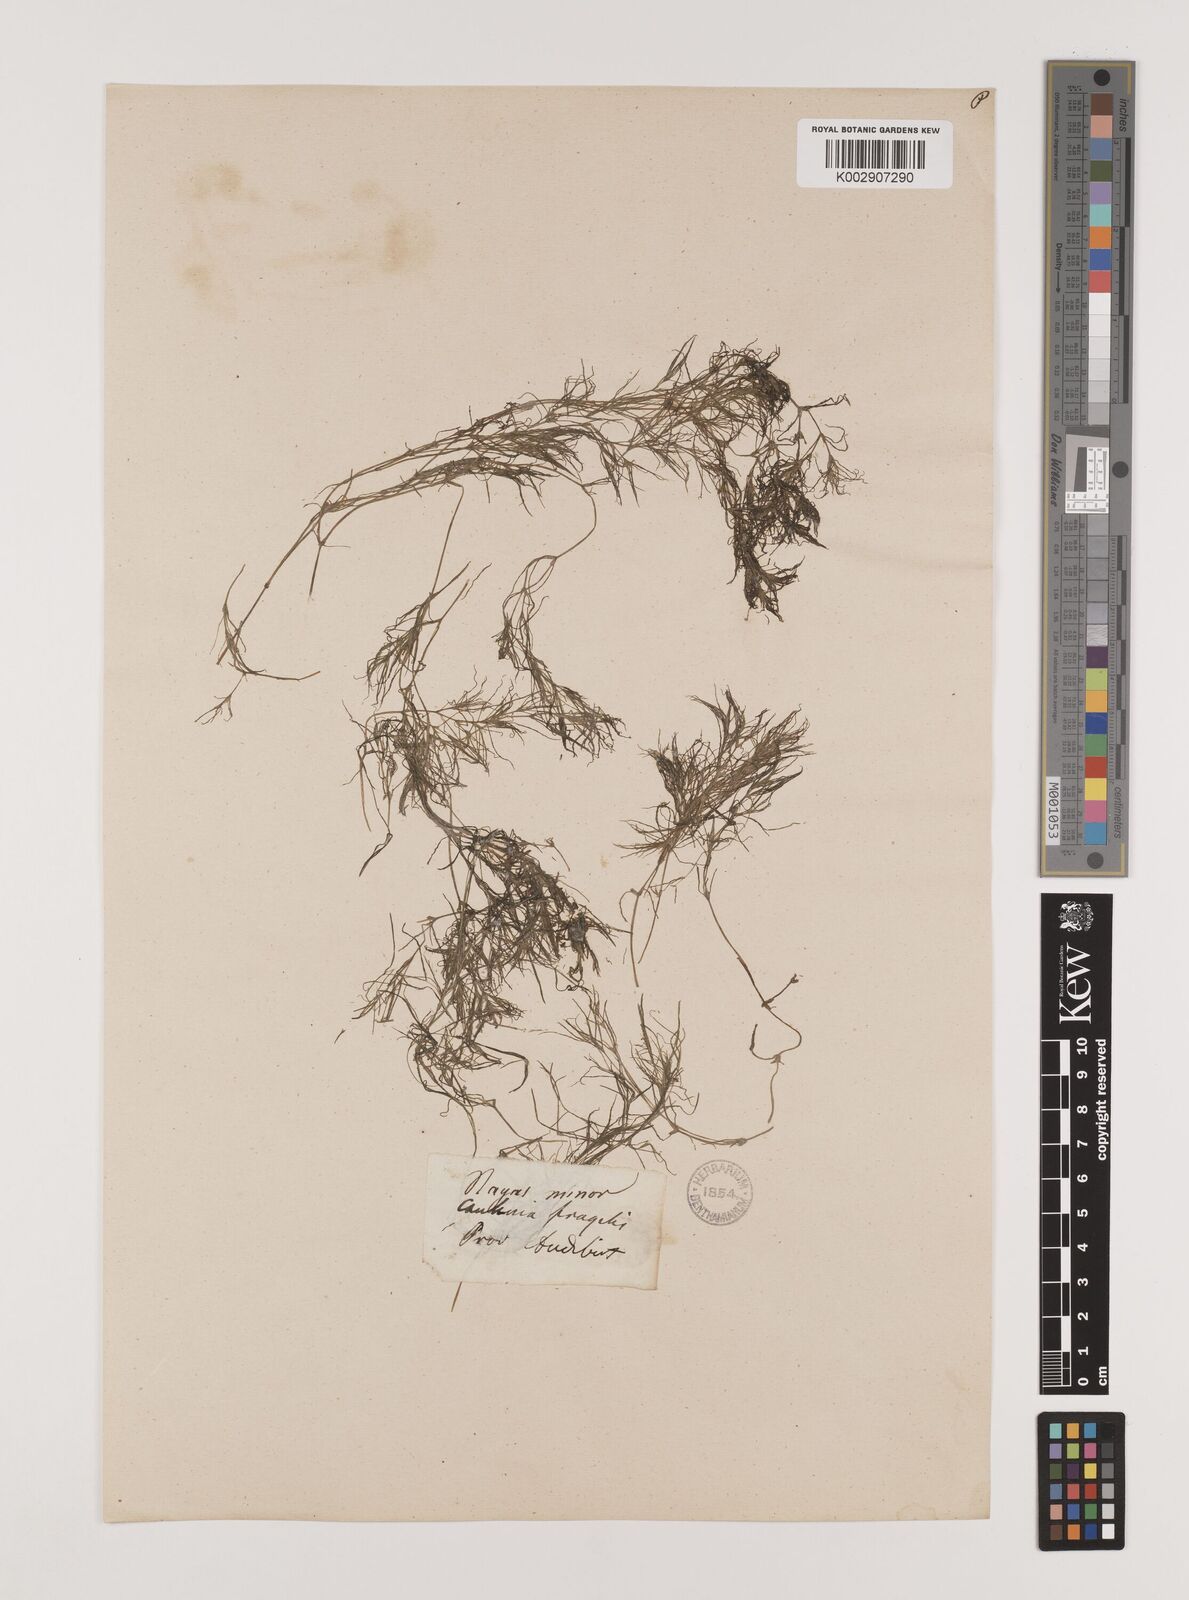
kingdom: Plantae
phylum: Tracheophyta
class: Liliopsida
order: Alismatales
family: Hydrocharitaceae
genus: Najas
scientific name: Najas minor
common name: Brittle naiad
